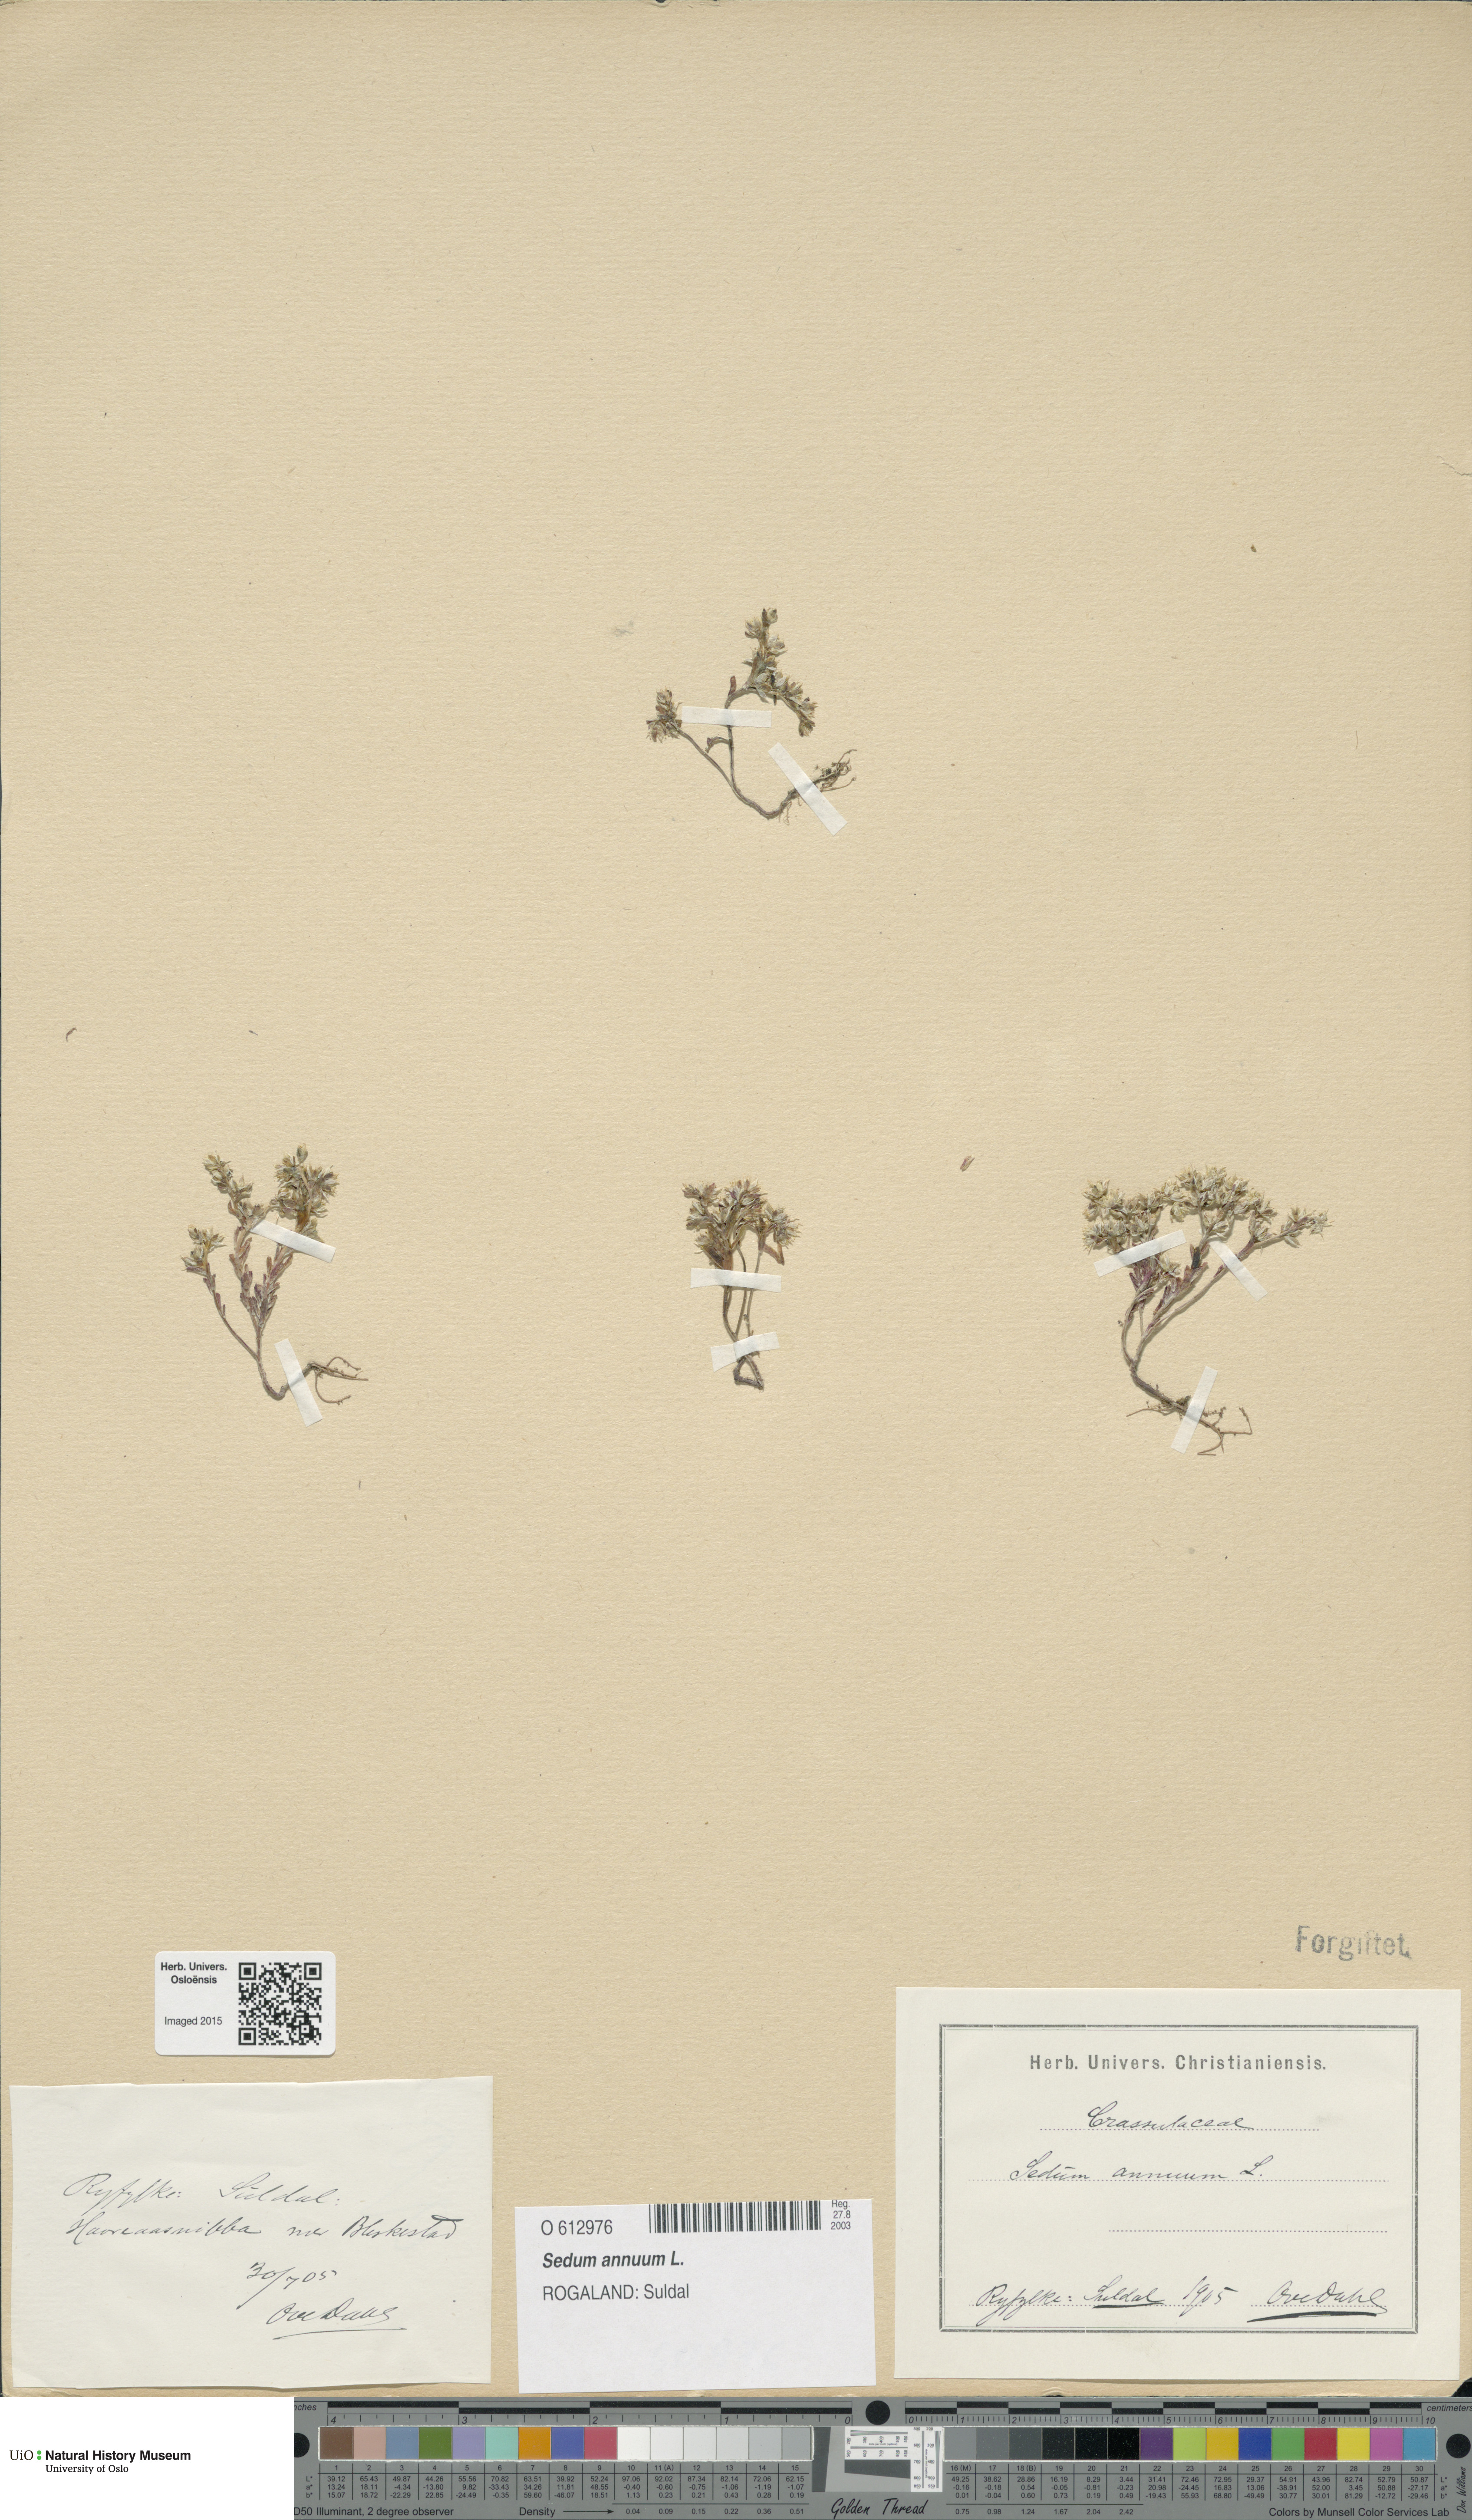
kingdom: Plantae
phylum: Tracheophyta
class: Magnoliopsida
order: Saxifragales
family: Crassulaceae
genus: Sedum
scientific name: Sedum annuum
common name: Annual stonecrop
